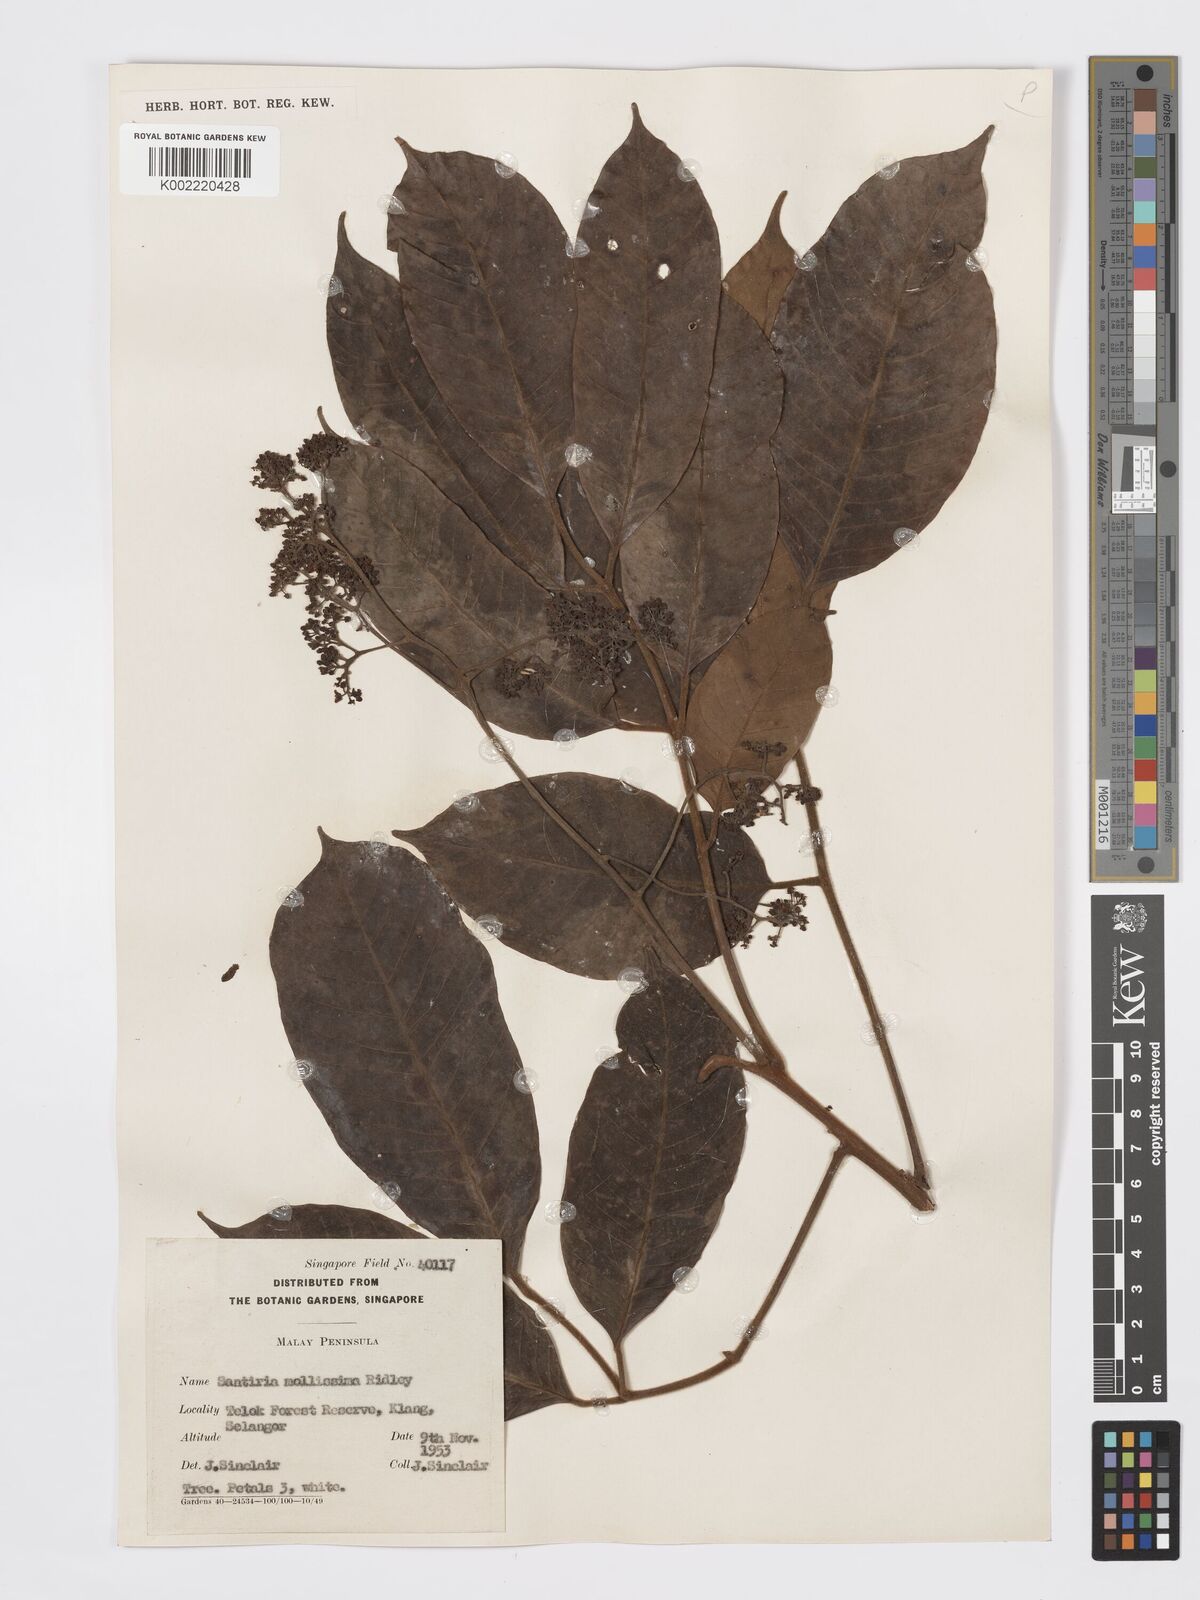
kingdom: Plantae
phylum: Tracheophyta
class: Magnoliopsida
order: Sapindales
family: Burseraceae
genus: Santiria
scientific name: Santiria tomentosa
